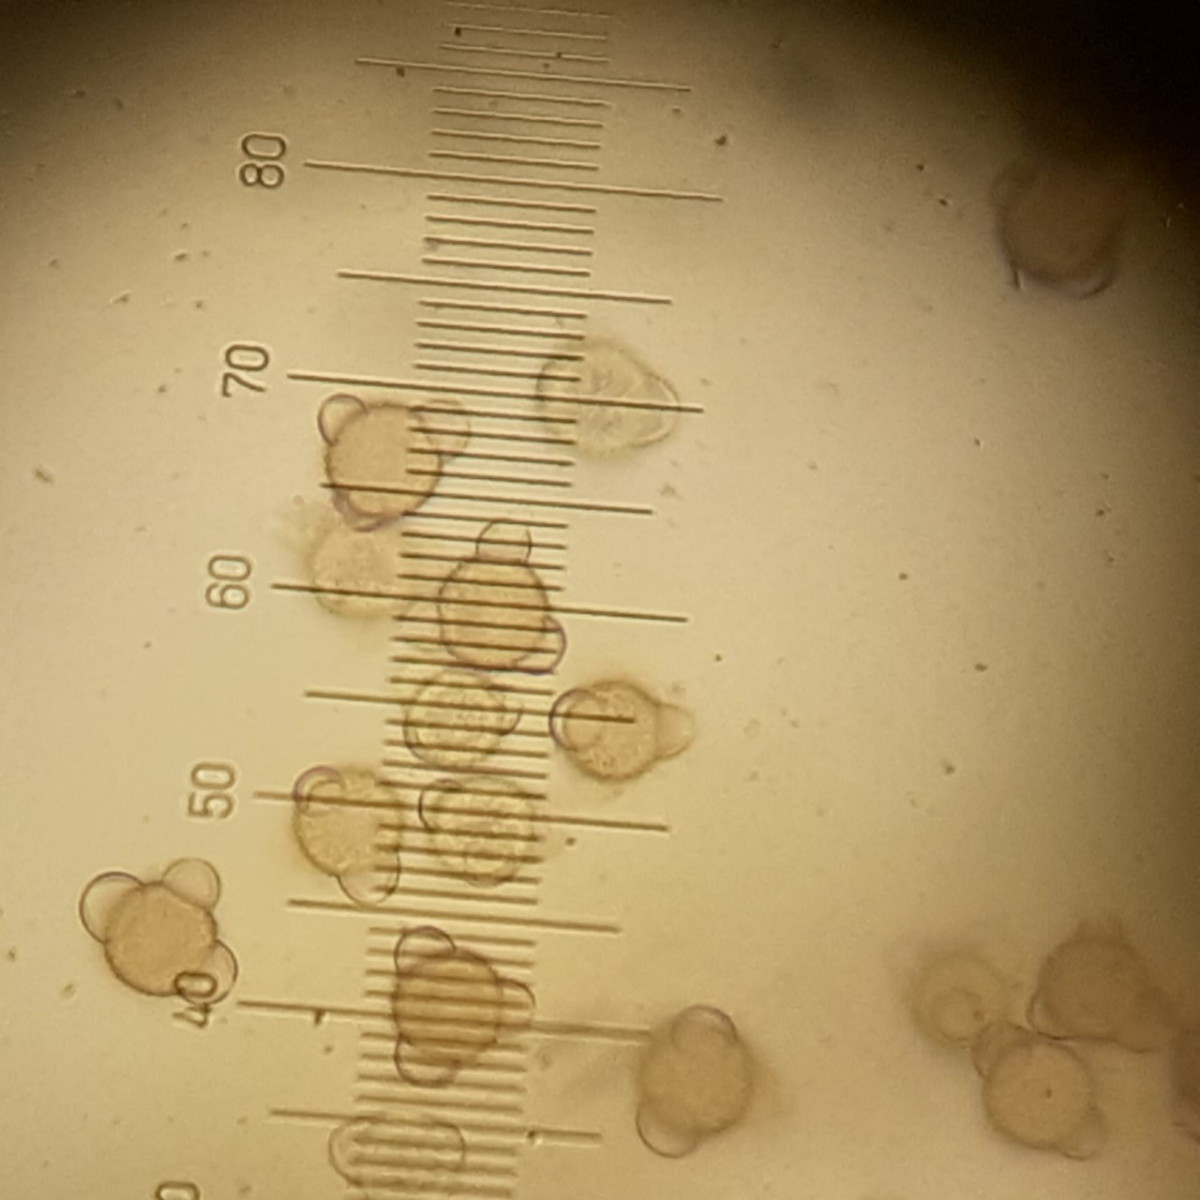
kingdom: Fungi
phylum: Ascomycota
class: Sordariomycetes
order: Hypocreales
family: Hypocreaceae
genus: Stephanoma
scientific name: Stephanoma tetracoccum
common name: øresporet snylteskorpe
